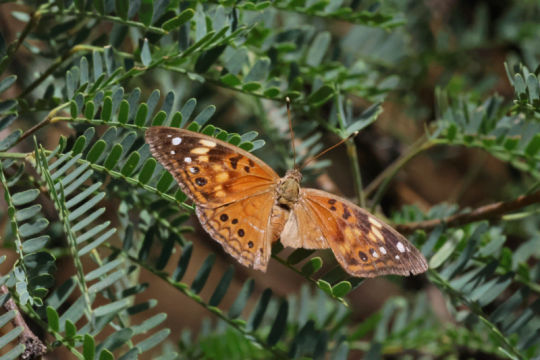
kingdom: Animalia
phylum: Arthropoda
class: Insecta
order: Lepidoptera
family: Nymphalidae
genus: Asterocampa
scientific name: Asterocampa celtis
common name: Hackberry Emperor
